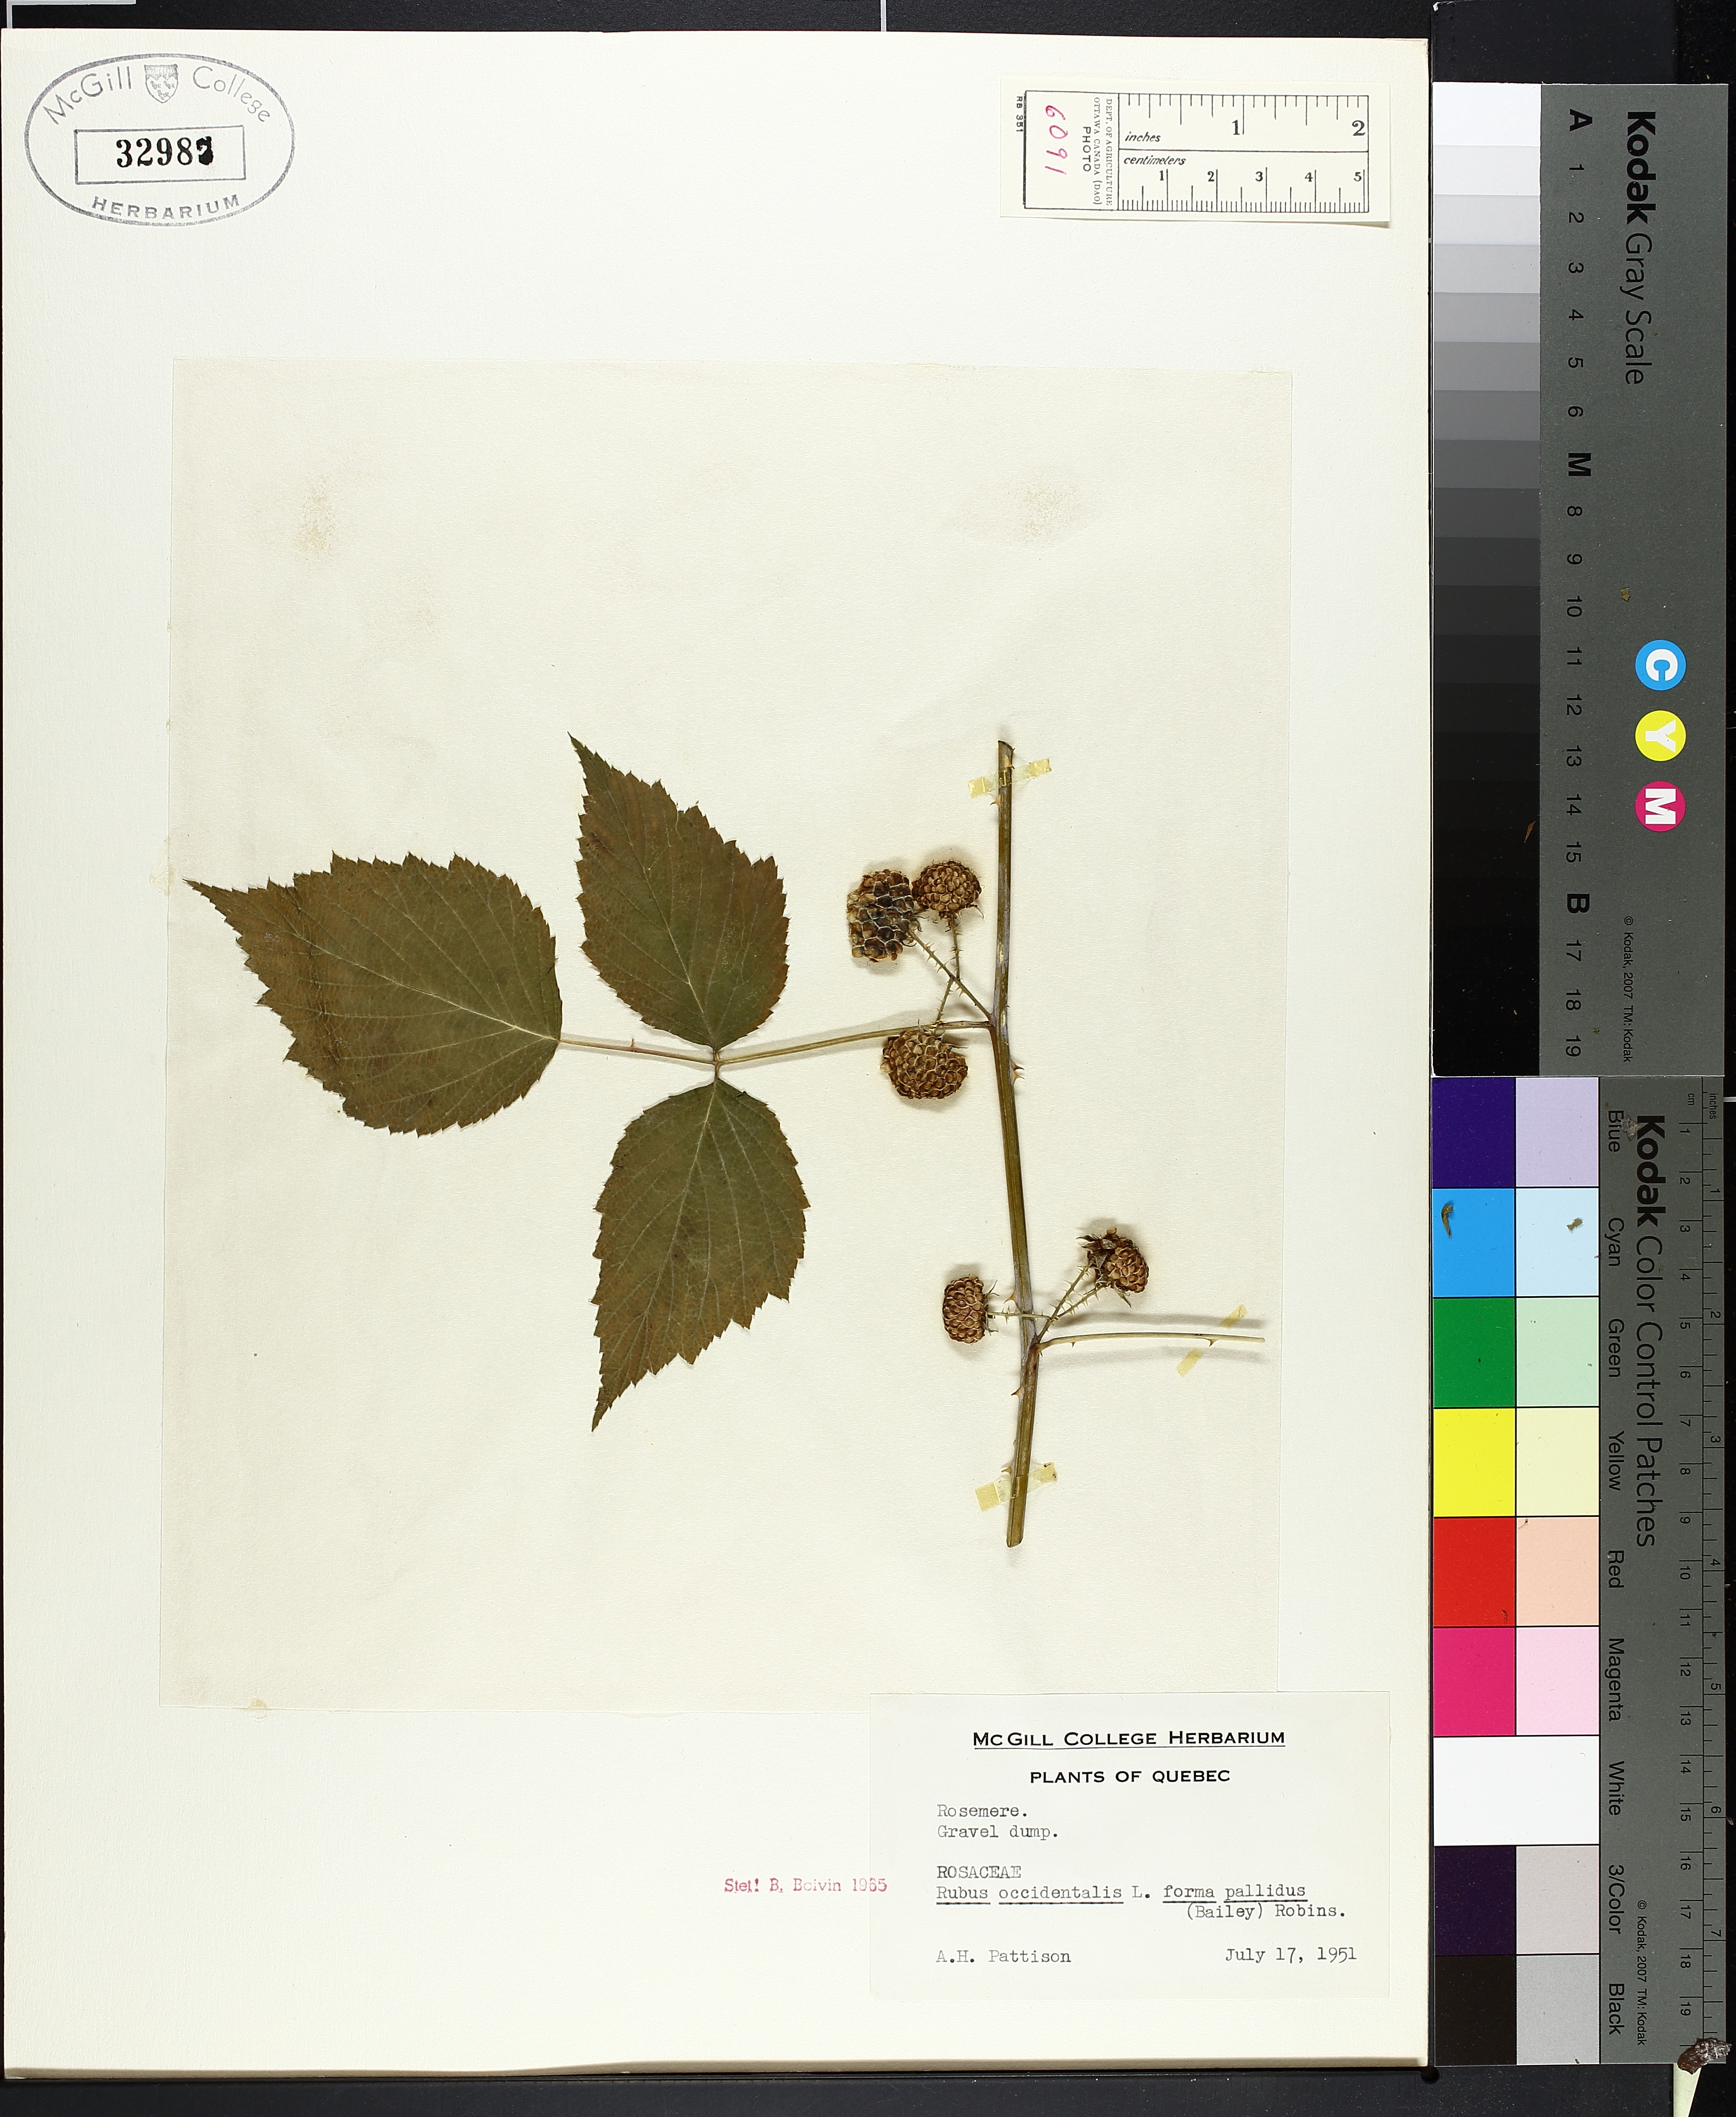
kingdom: Plantae
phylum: Tracheophyta
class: Magnoliopsida
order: Boraginales
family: Hydrophyllaceae
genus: Hydrophyllum
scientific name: Hydrophyllum virginianum
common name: Virginia waterleaf
